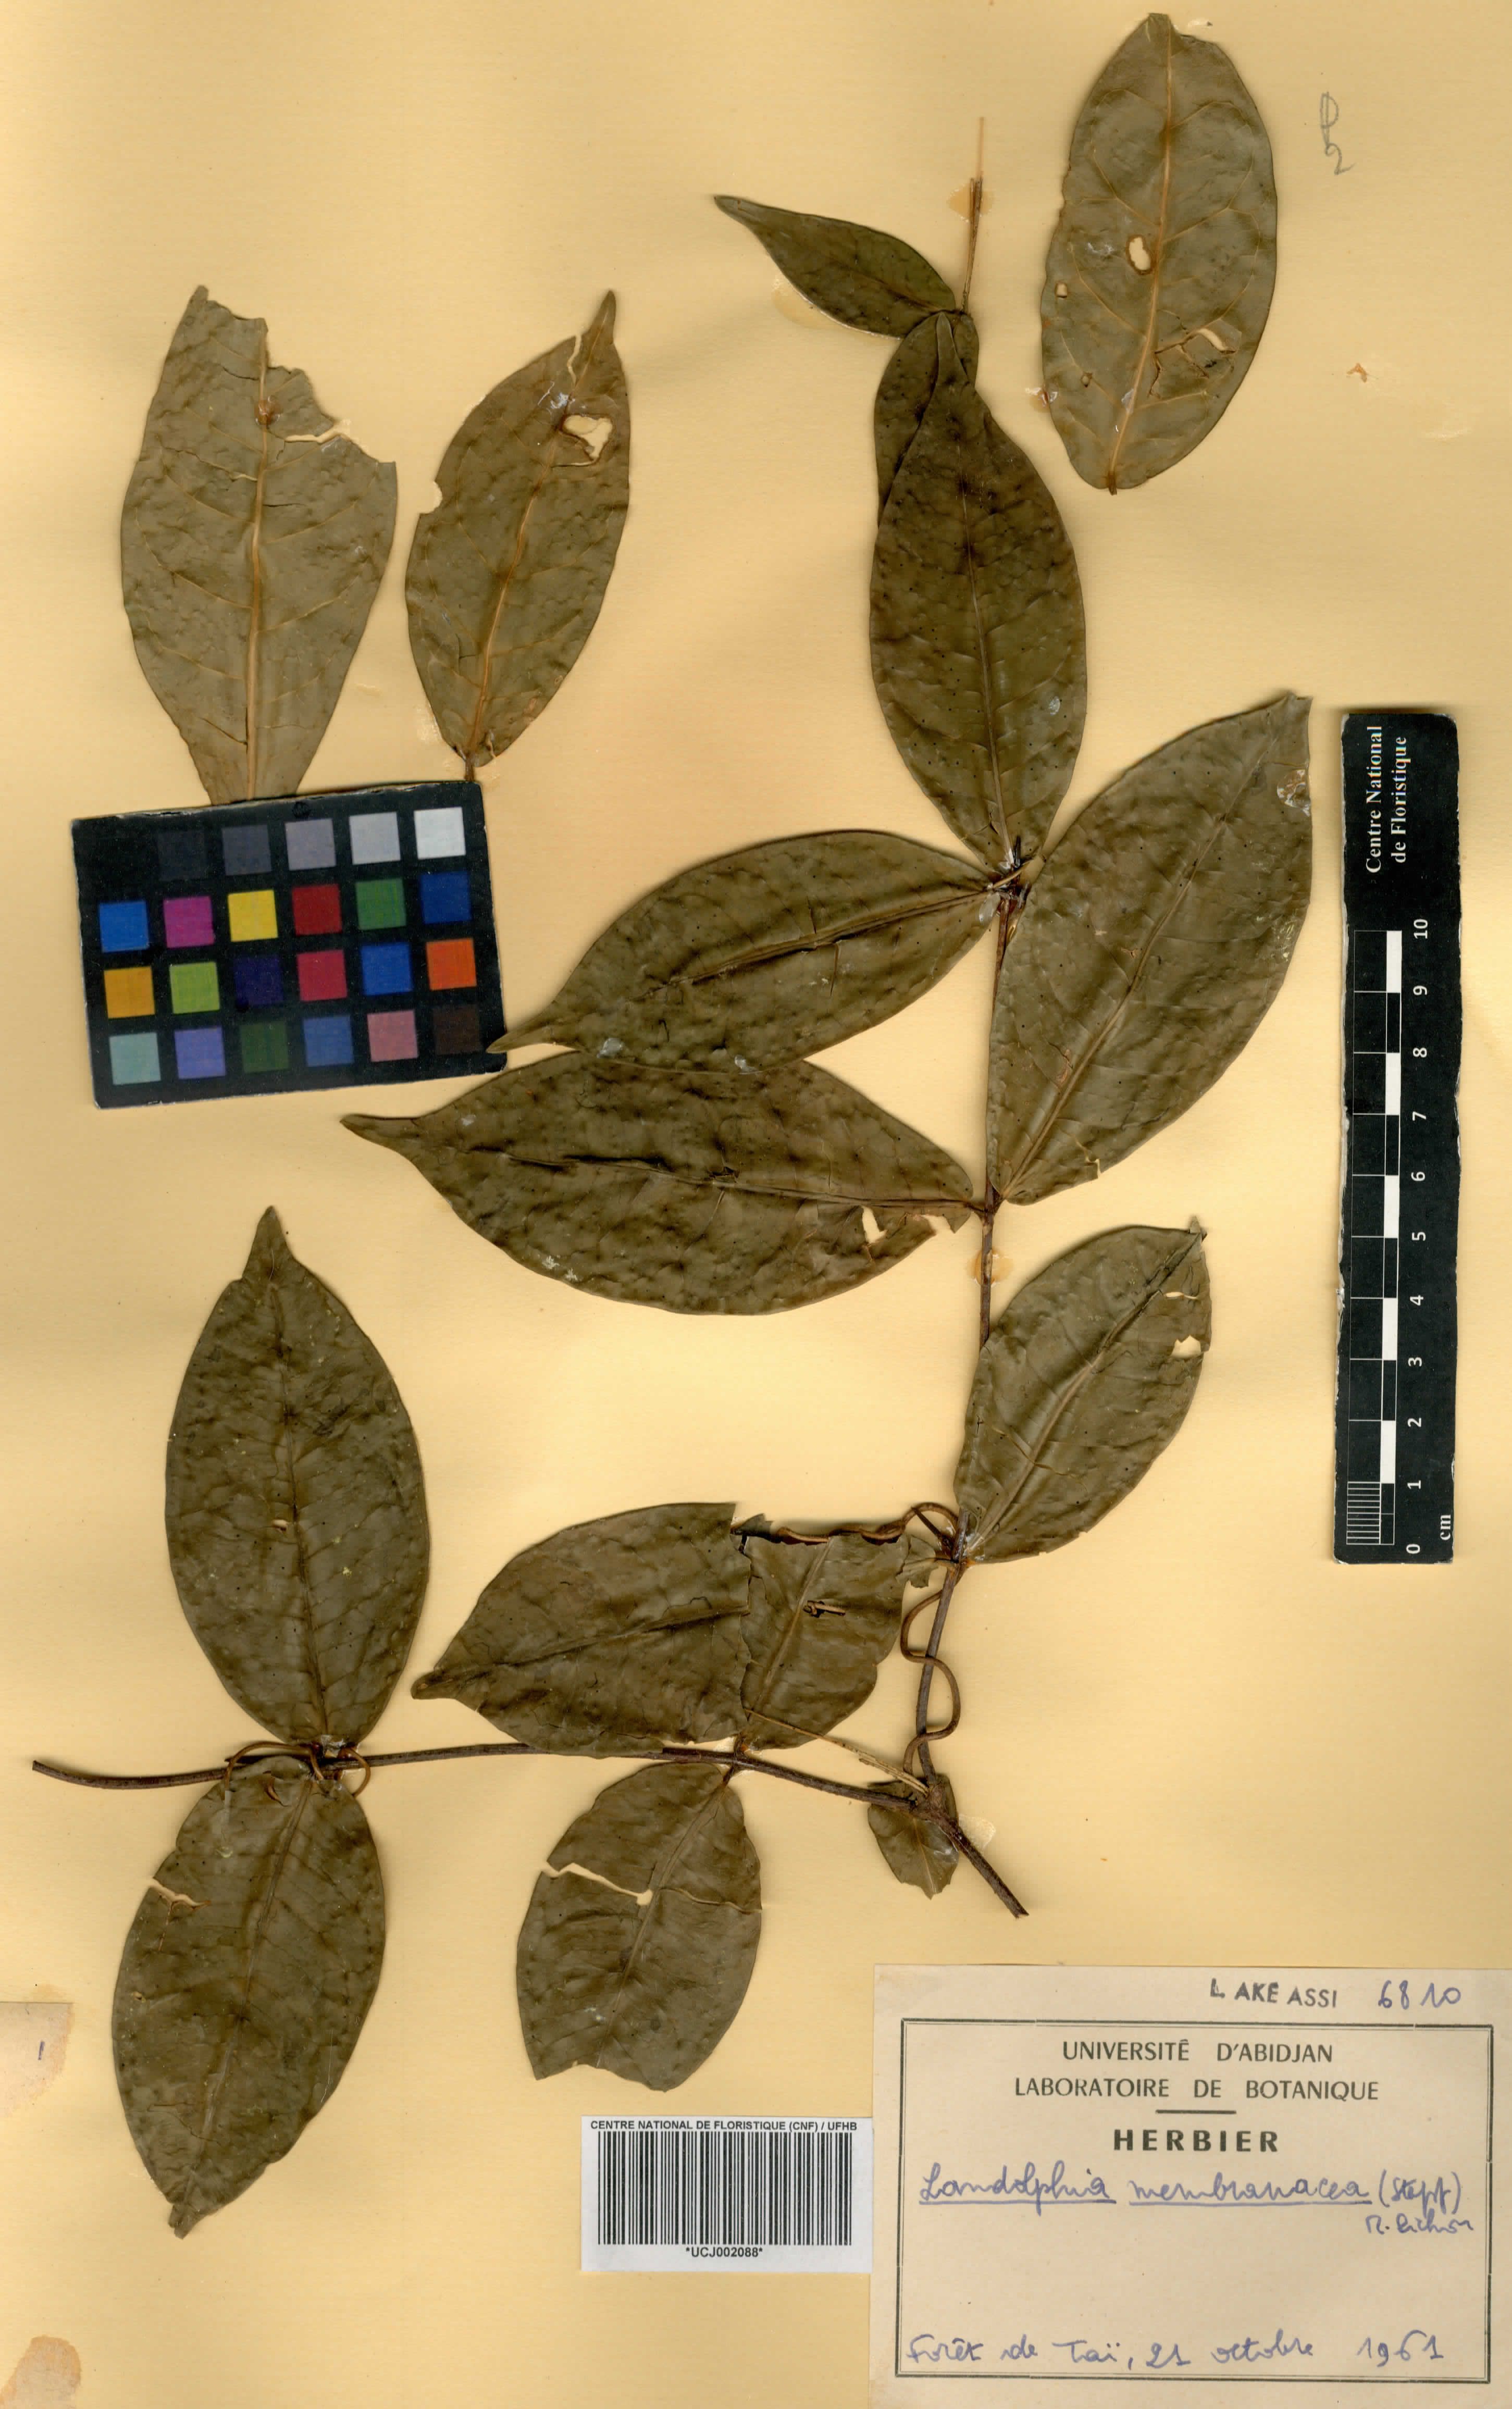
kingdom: Plantae
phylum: Tracheophyta
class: Magnoliopsida
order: Gentianales
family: Apocynaceae
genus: Landolphia
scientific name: Landolphia membranacea
